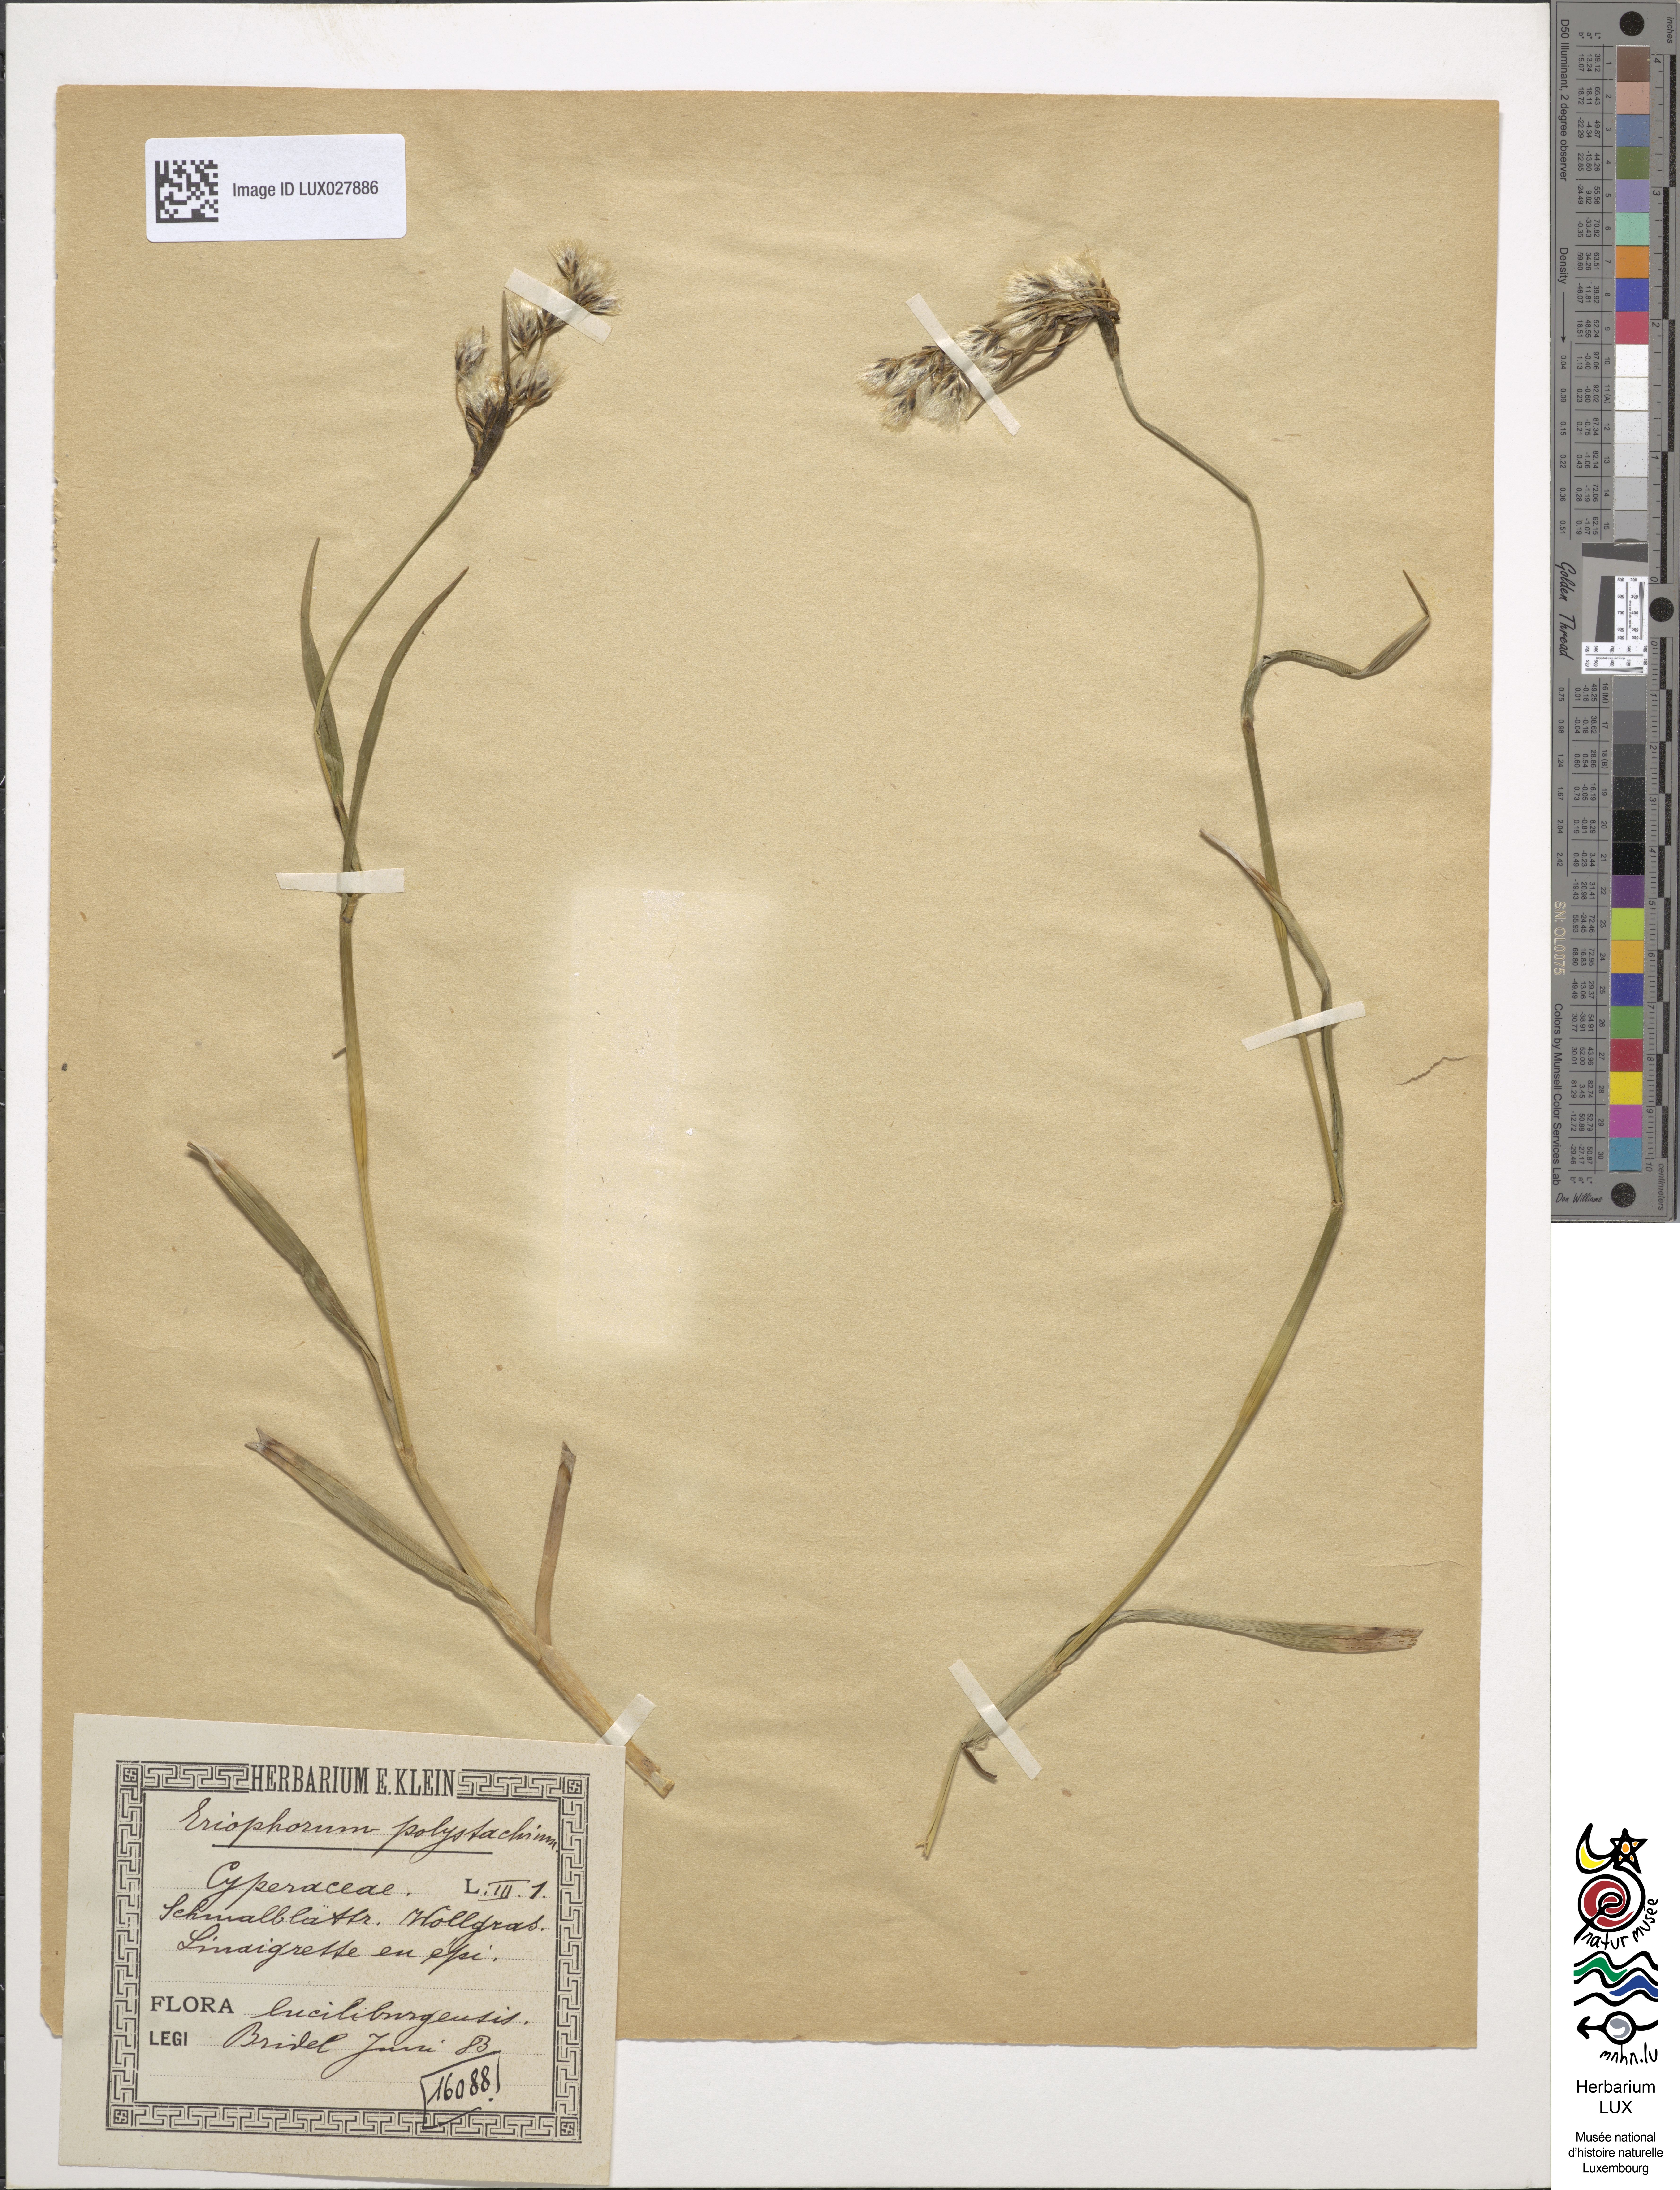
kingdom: Plantae
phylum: Tracheophyta
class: Liliopsida
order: Poales
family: Cyperaceae
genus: Eriophorum
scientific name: Eriophorum angustifolium
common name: Common cottongrass
